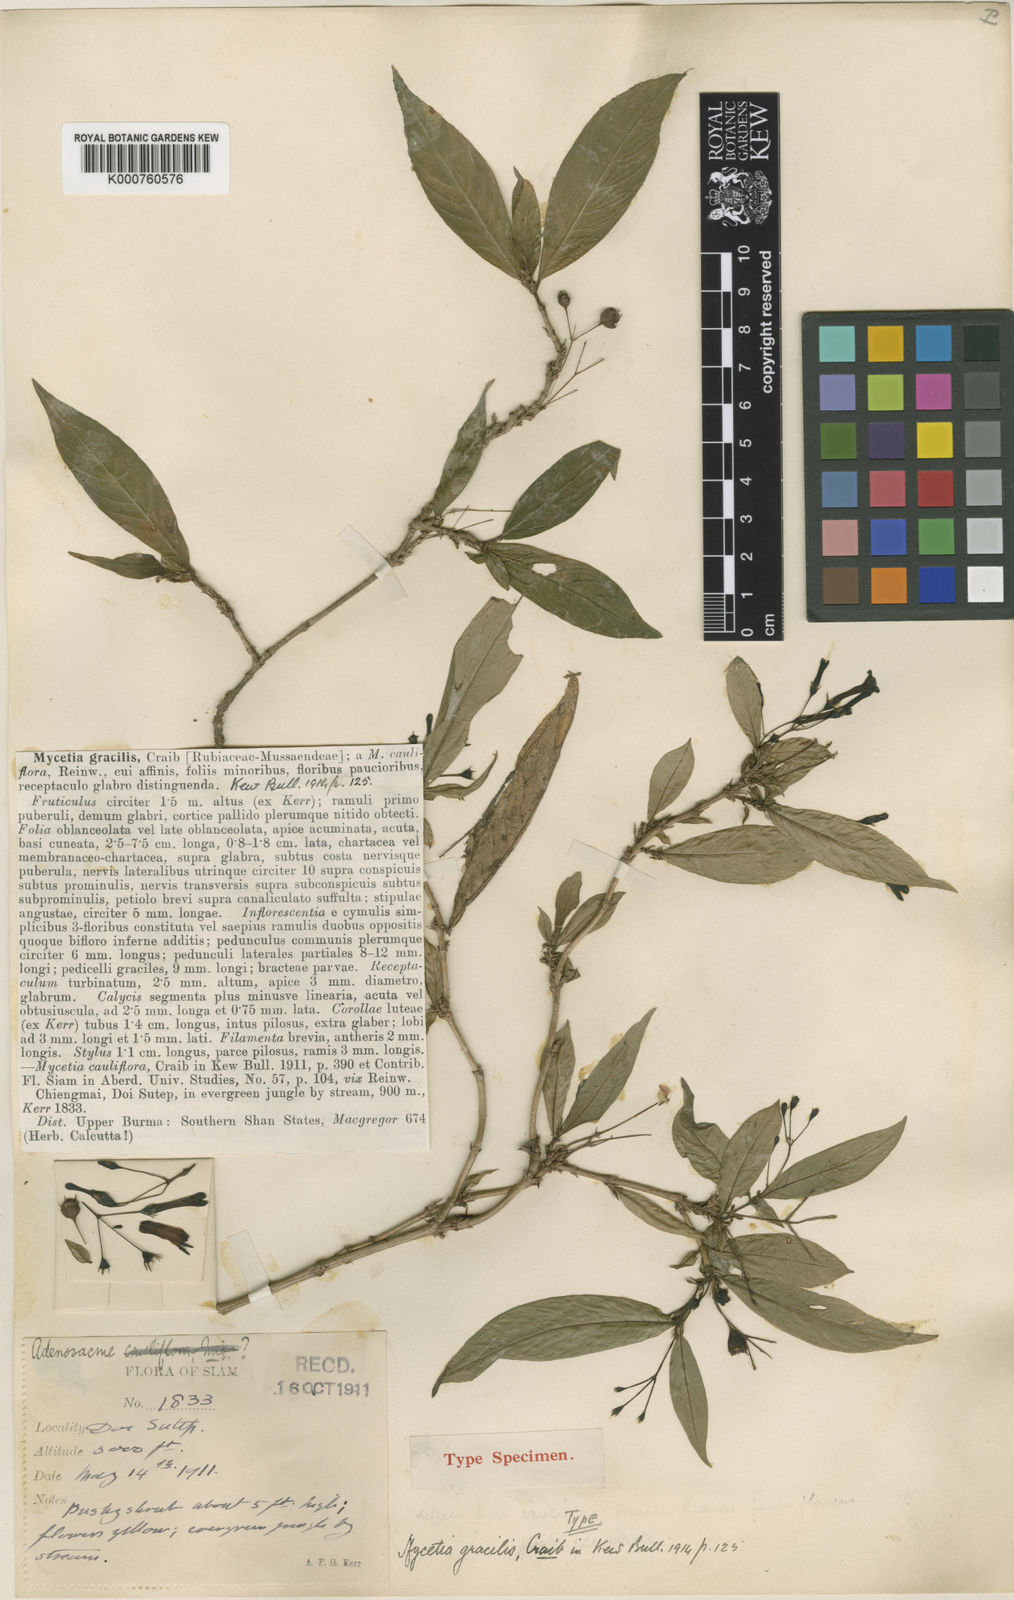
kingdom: Plantae
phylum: Tracheophyta
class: Magnoliopsida
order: Gentianales
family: Rubiaceae
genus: Mycetia
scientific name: Mycetia gracilis
